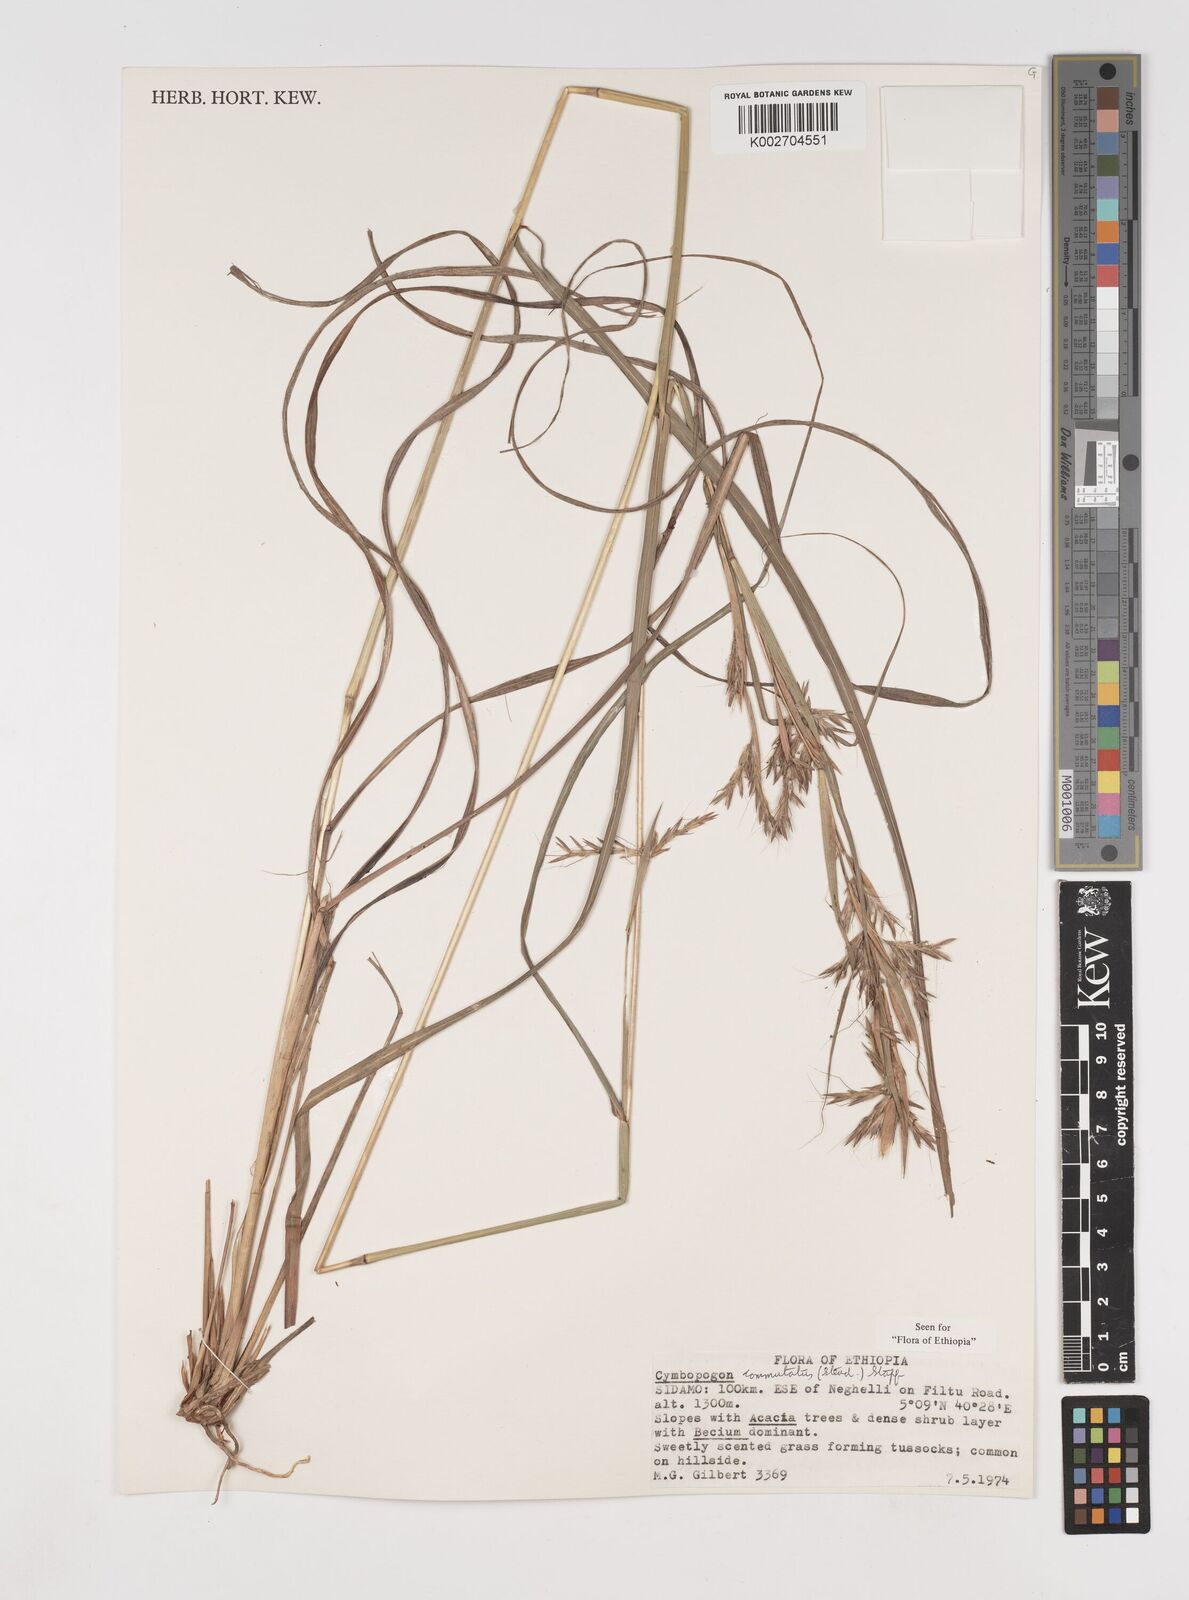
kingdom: Plantae
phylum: Tracheophyta
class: Liliopsida
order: Poales
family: Poaceae
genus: Cymbopogon
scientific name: Cymbopogon commutatus
